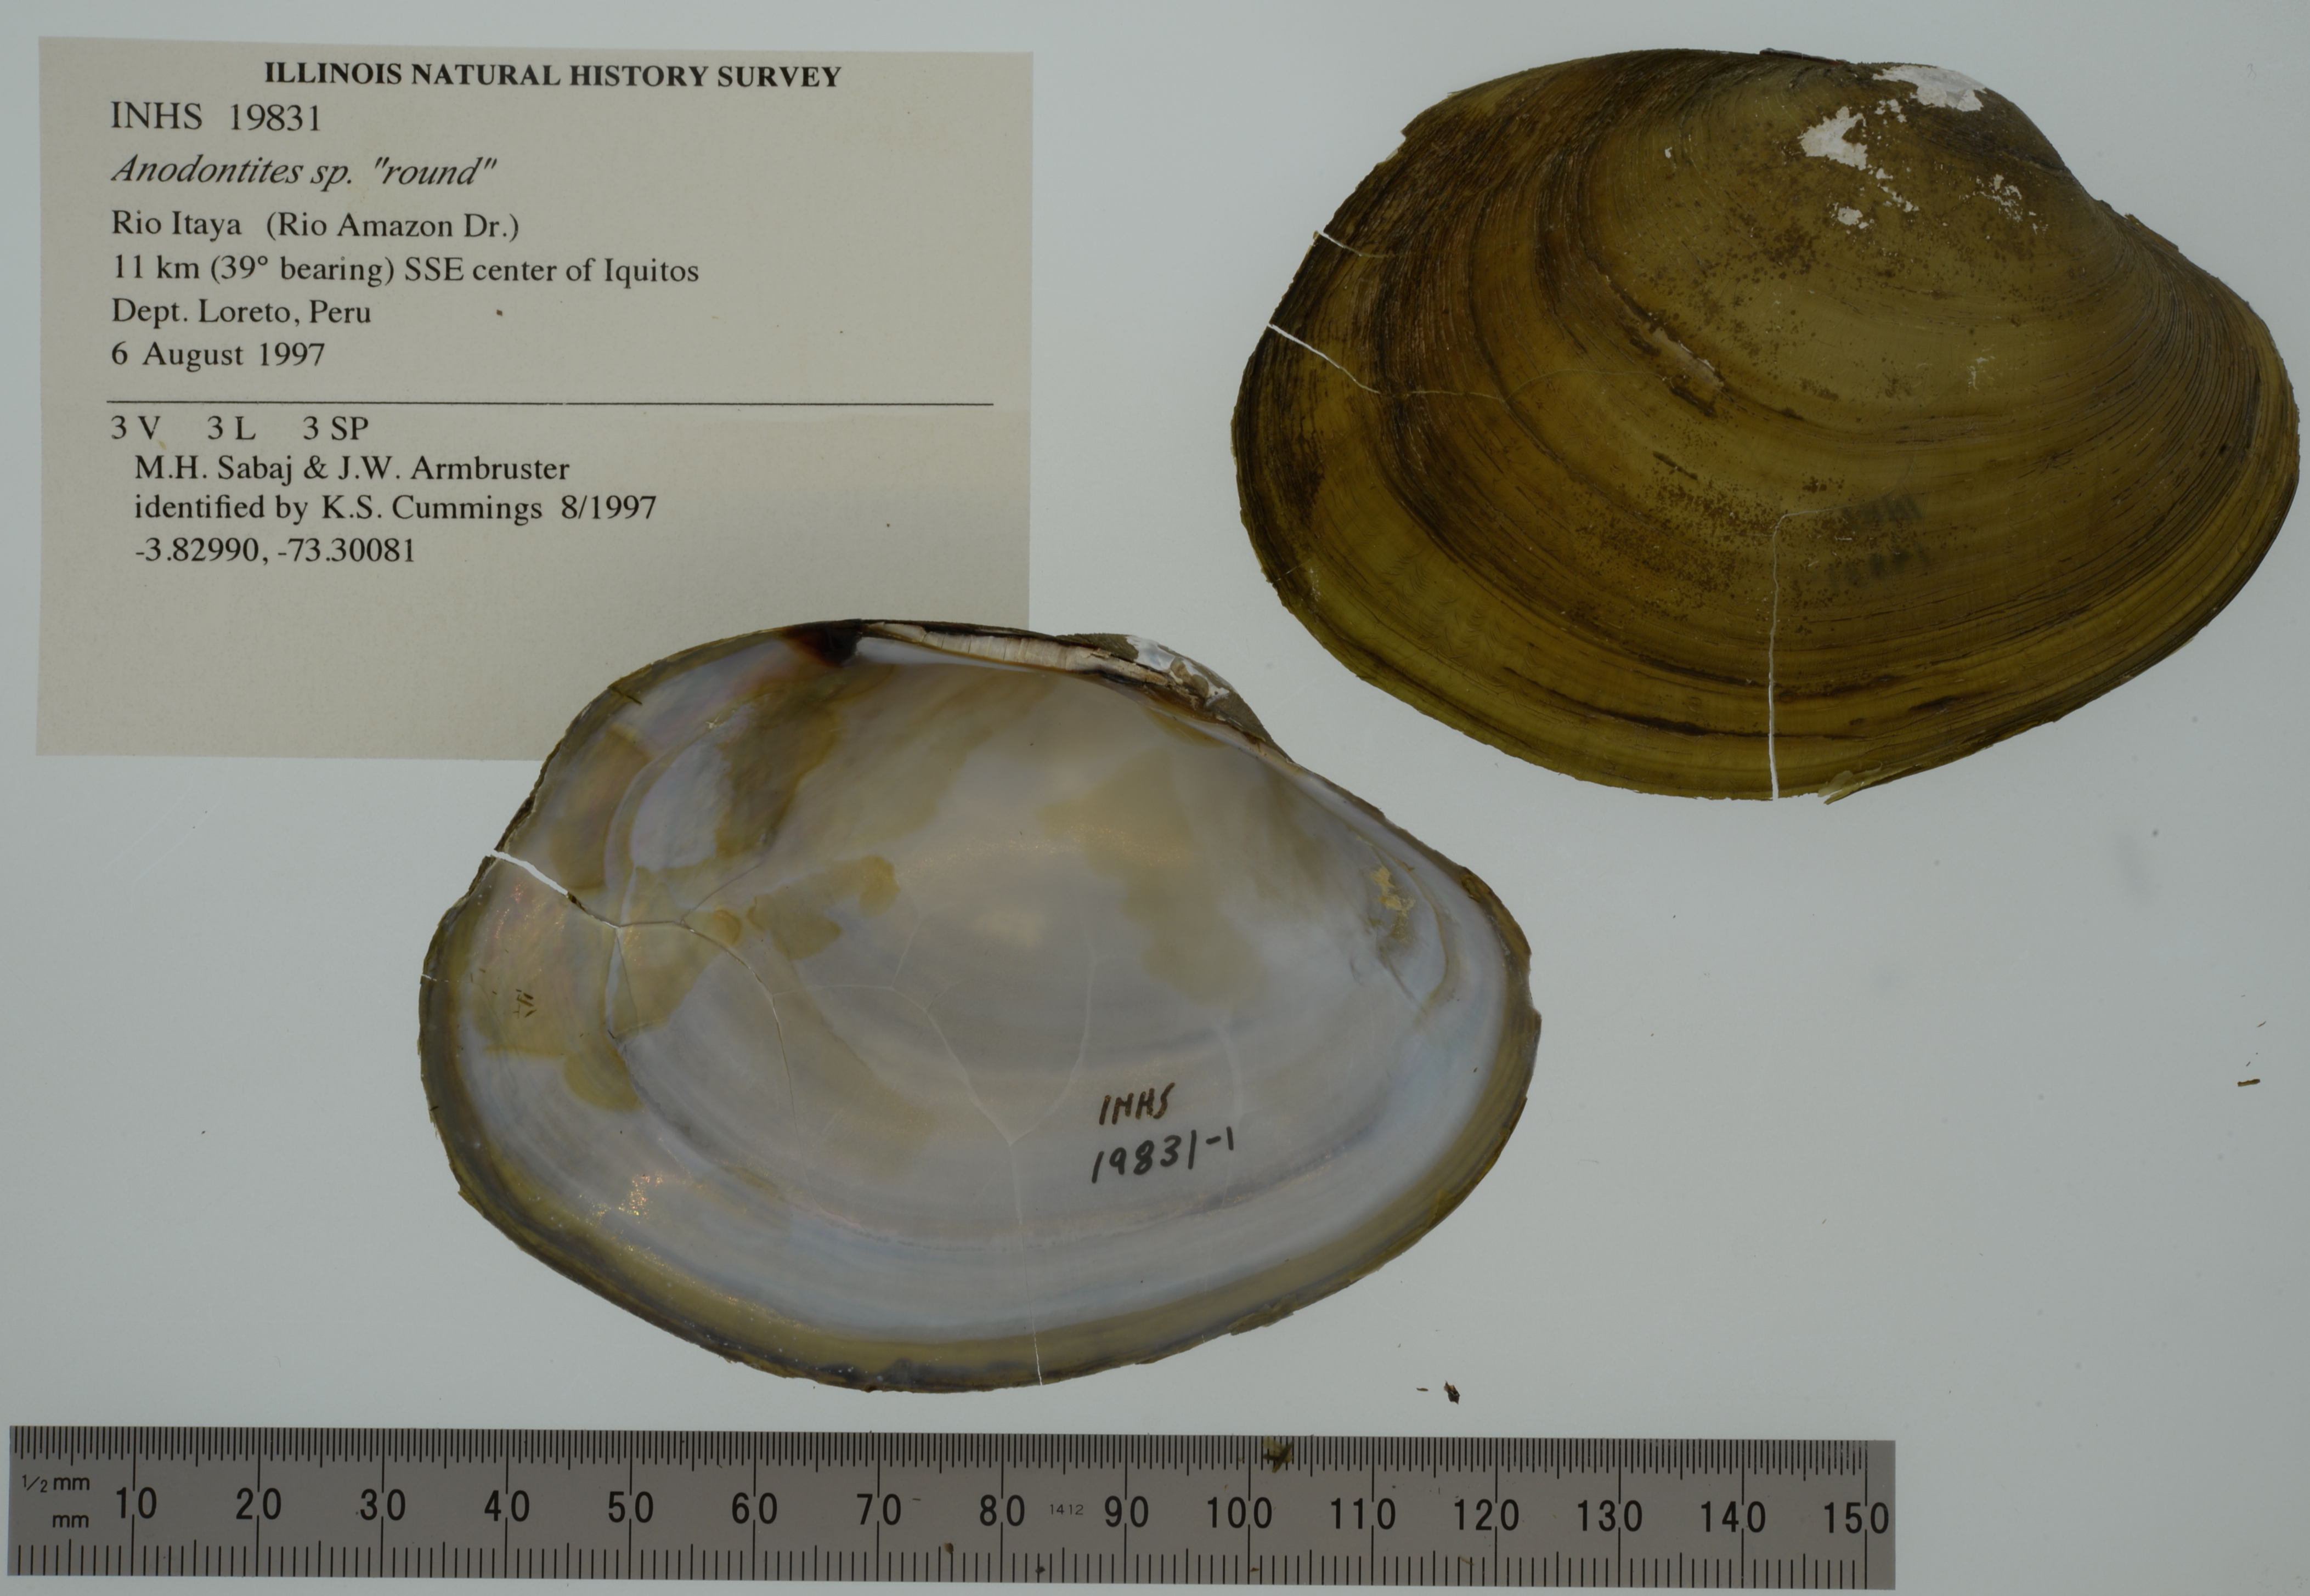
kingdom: Animalia
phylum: Mollusca
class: Bivalvia
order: Unionida
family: Mycetopodidae
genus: Tamsiella
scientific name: Tamsiella amazonica
